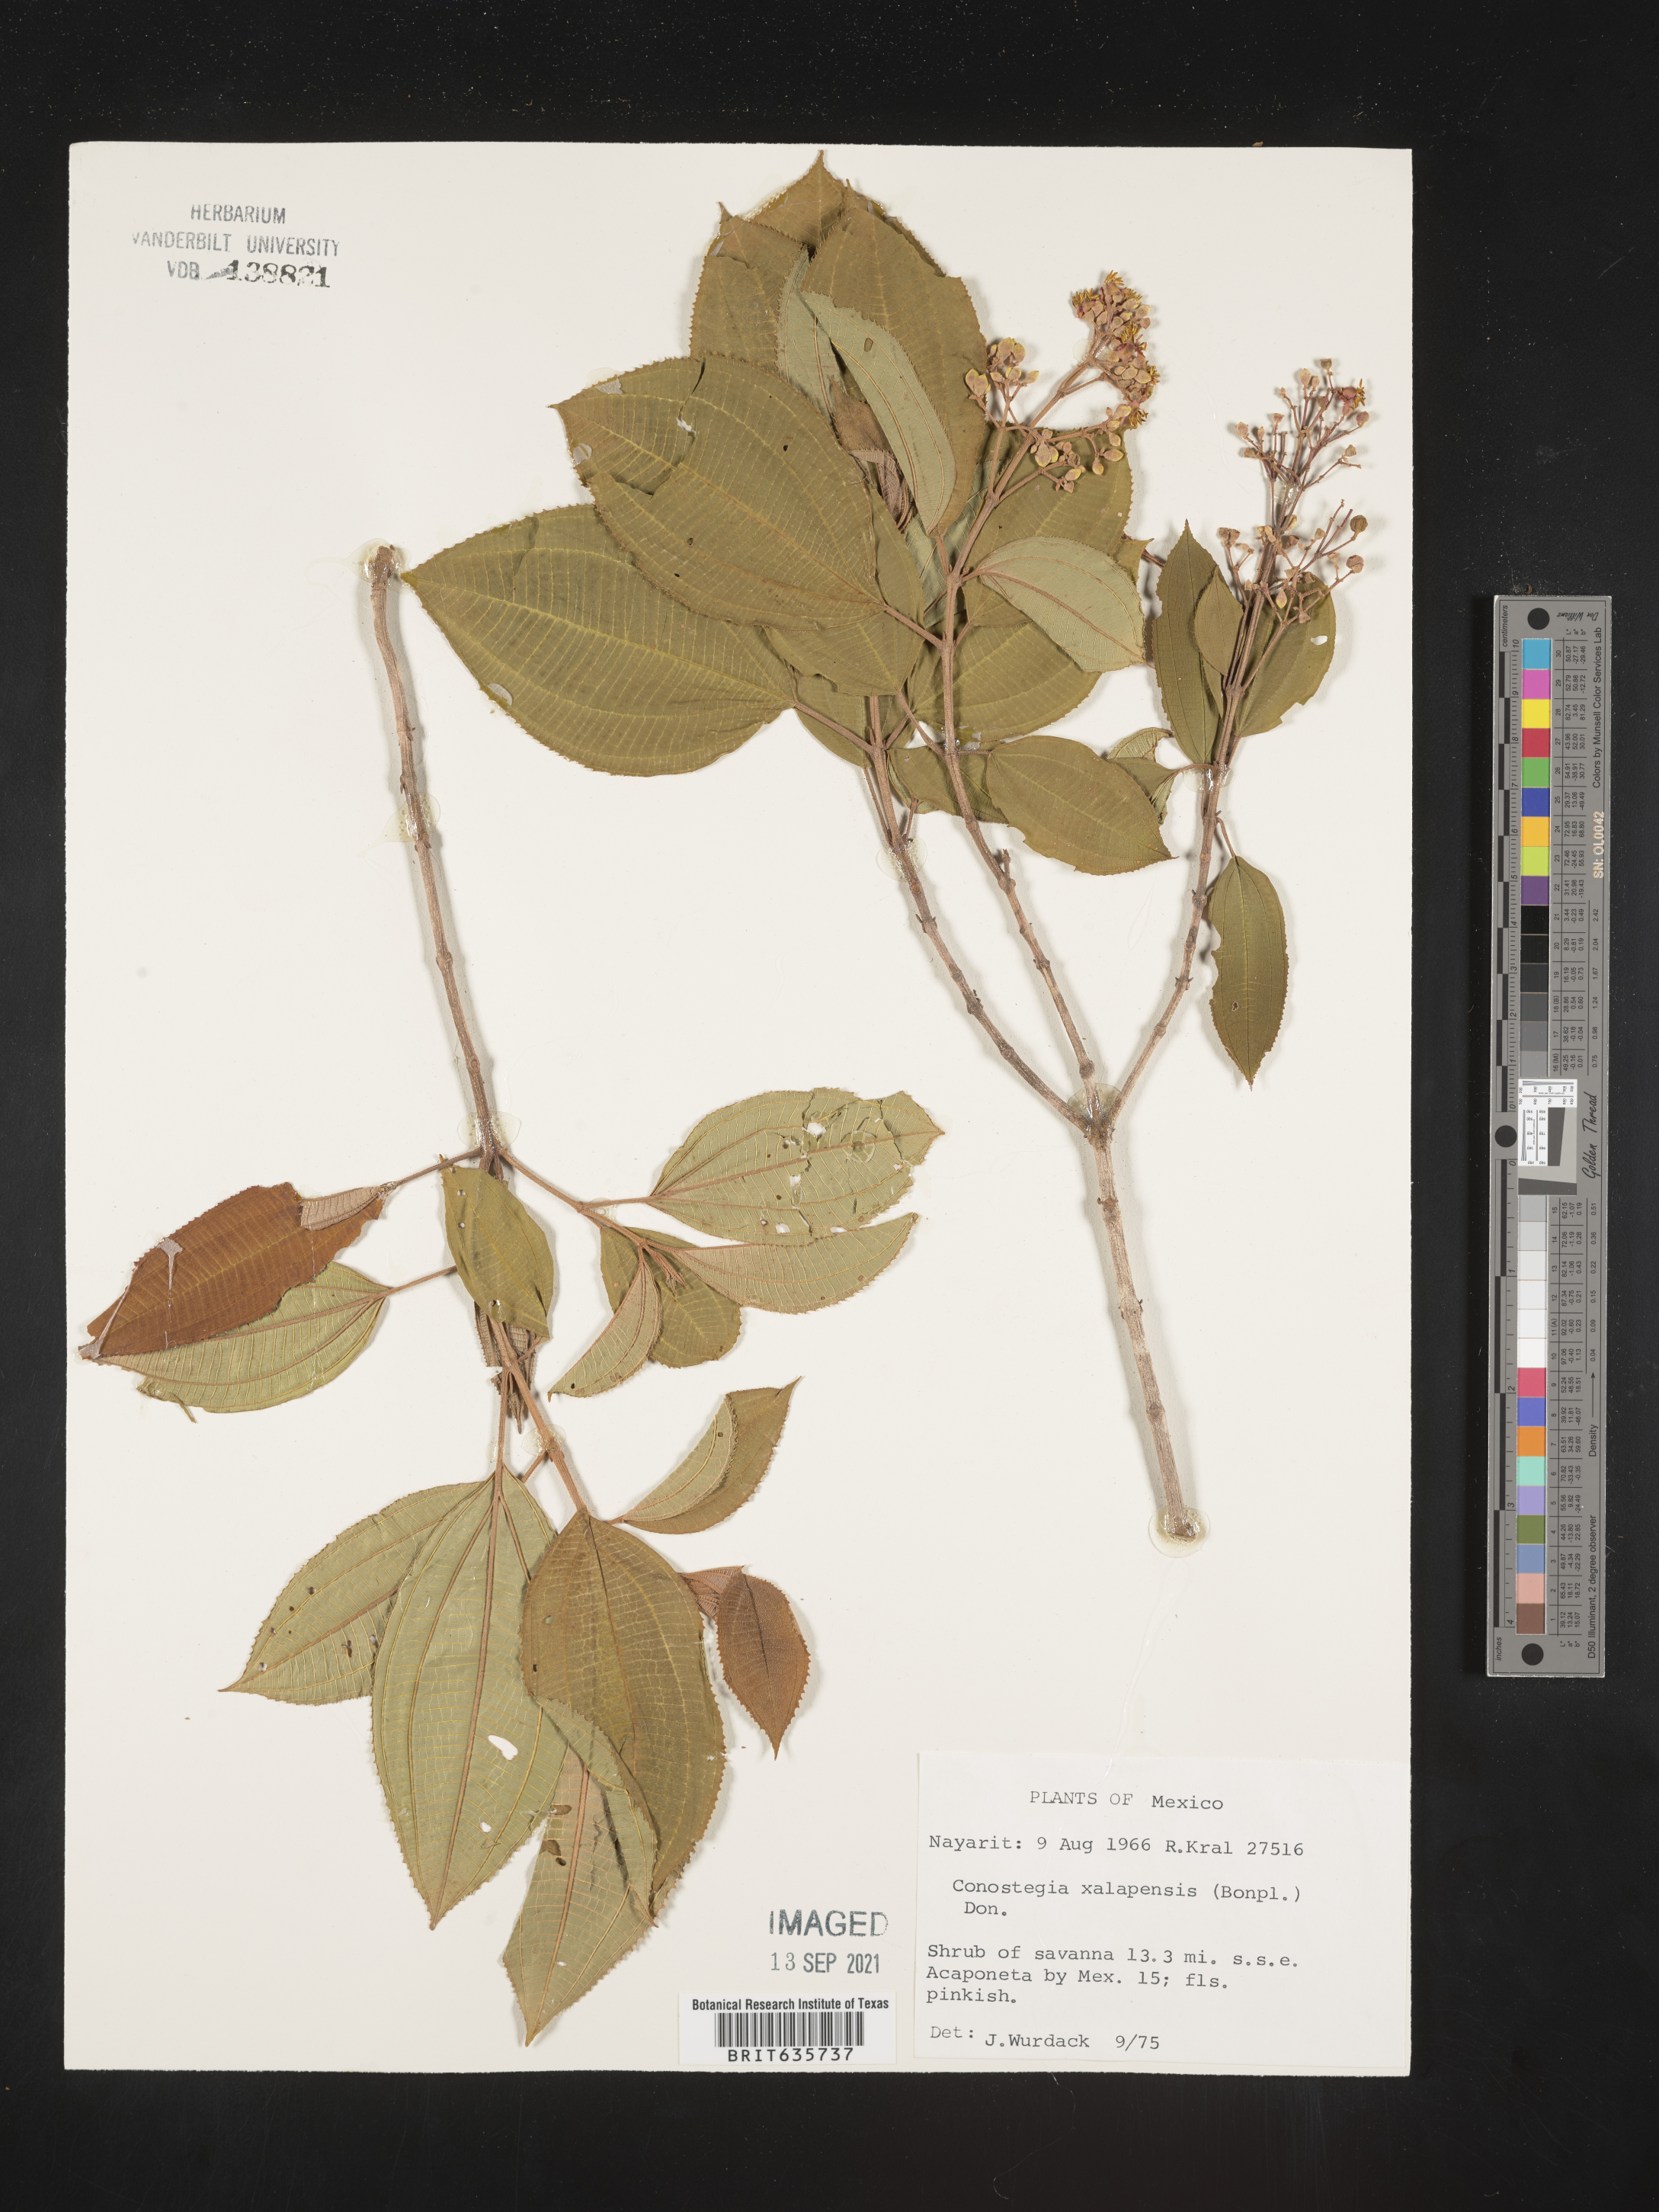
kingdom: Plantae
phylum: Tracheophyta
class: Magnoliopsida
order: Myrtales
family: Melastomataceae
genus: Miconia
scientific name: Miconia
